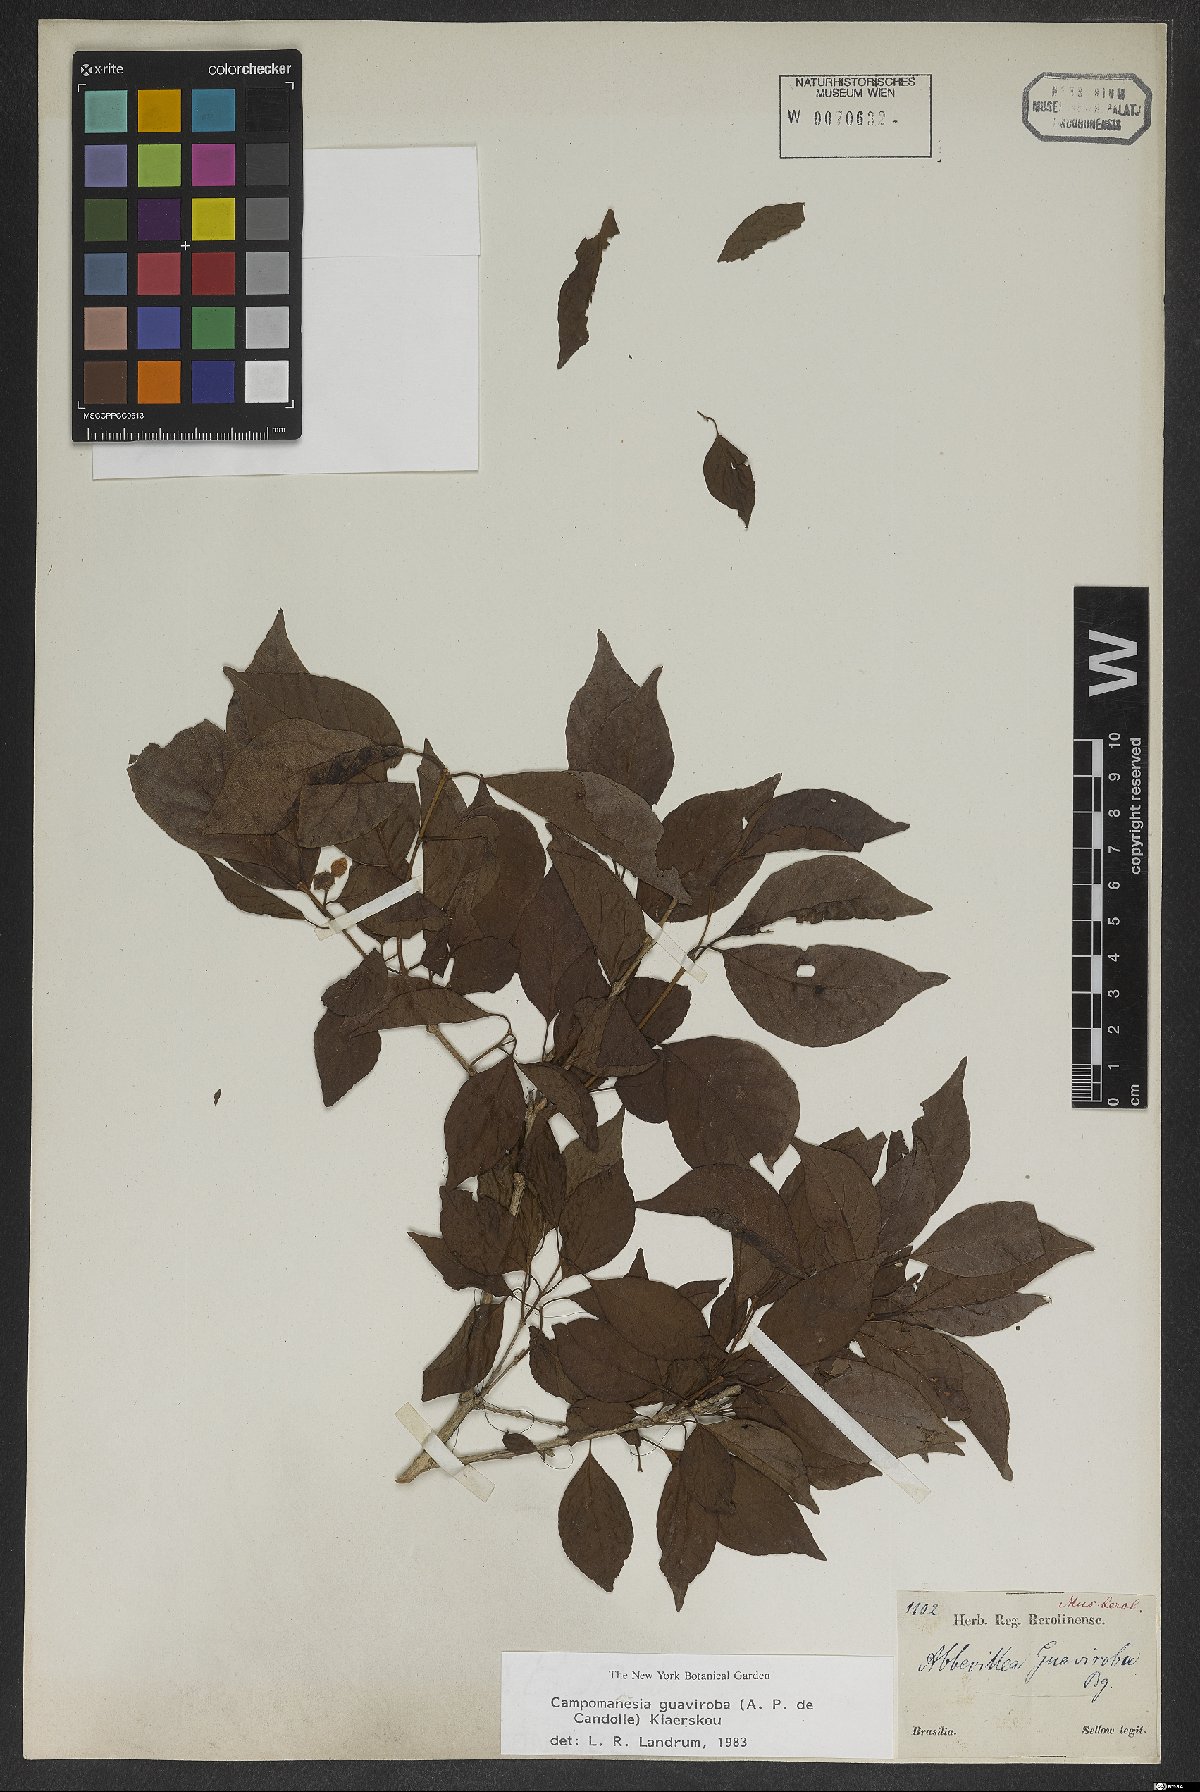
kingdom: Plantae
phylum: Tracheophyta
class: Magnoliopsida
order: Myrtales
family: Myrtaceae
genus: Campomanesia
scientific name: Campomanesia guaviroba
